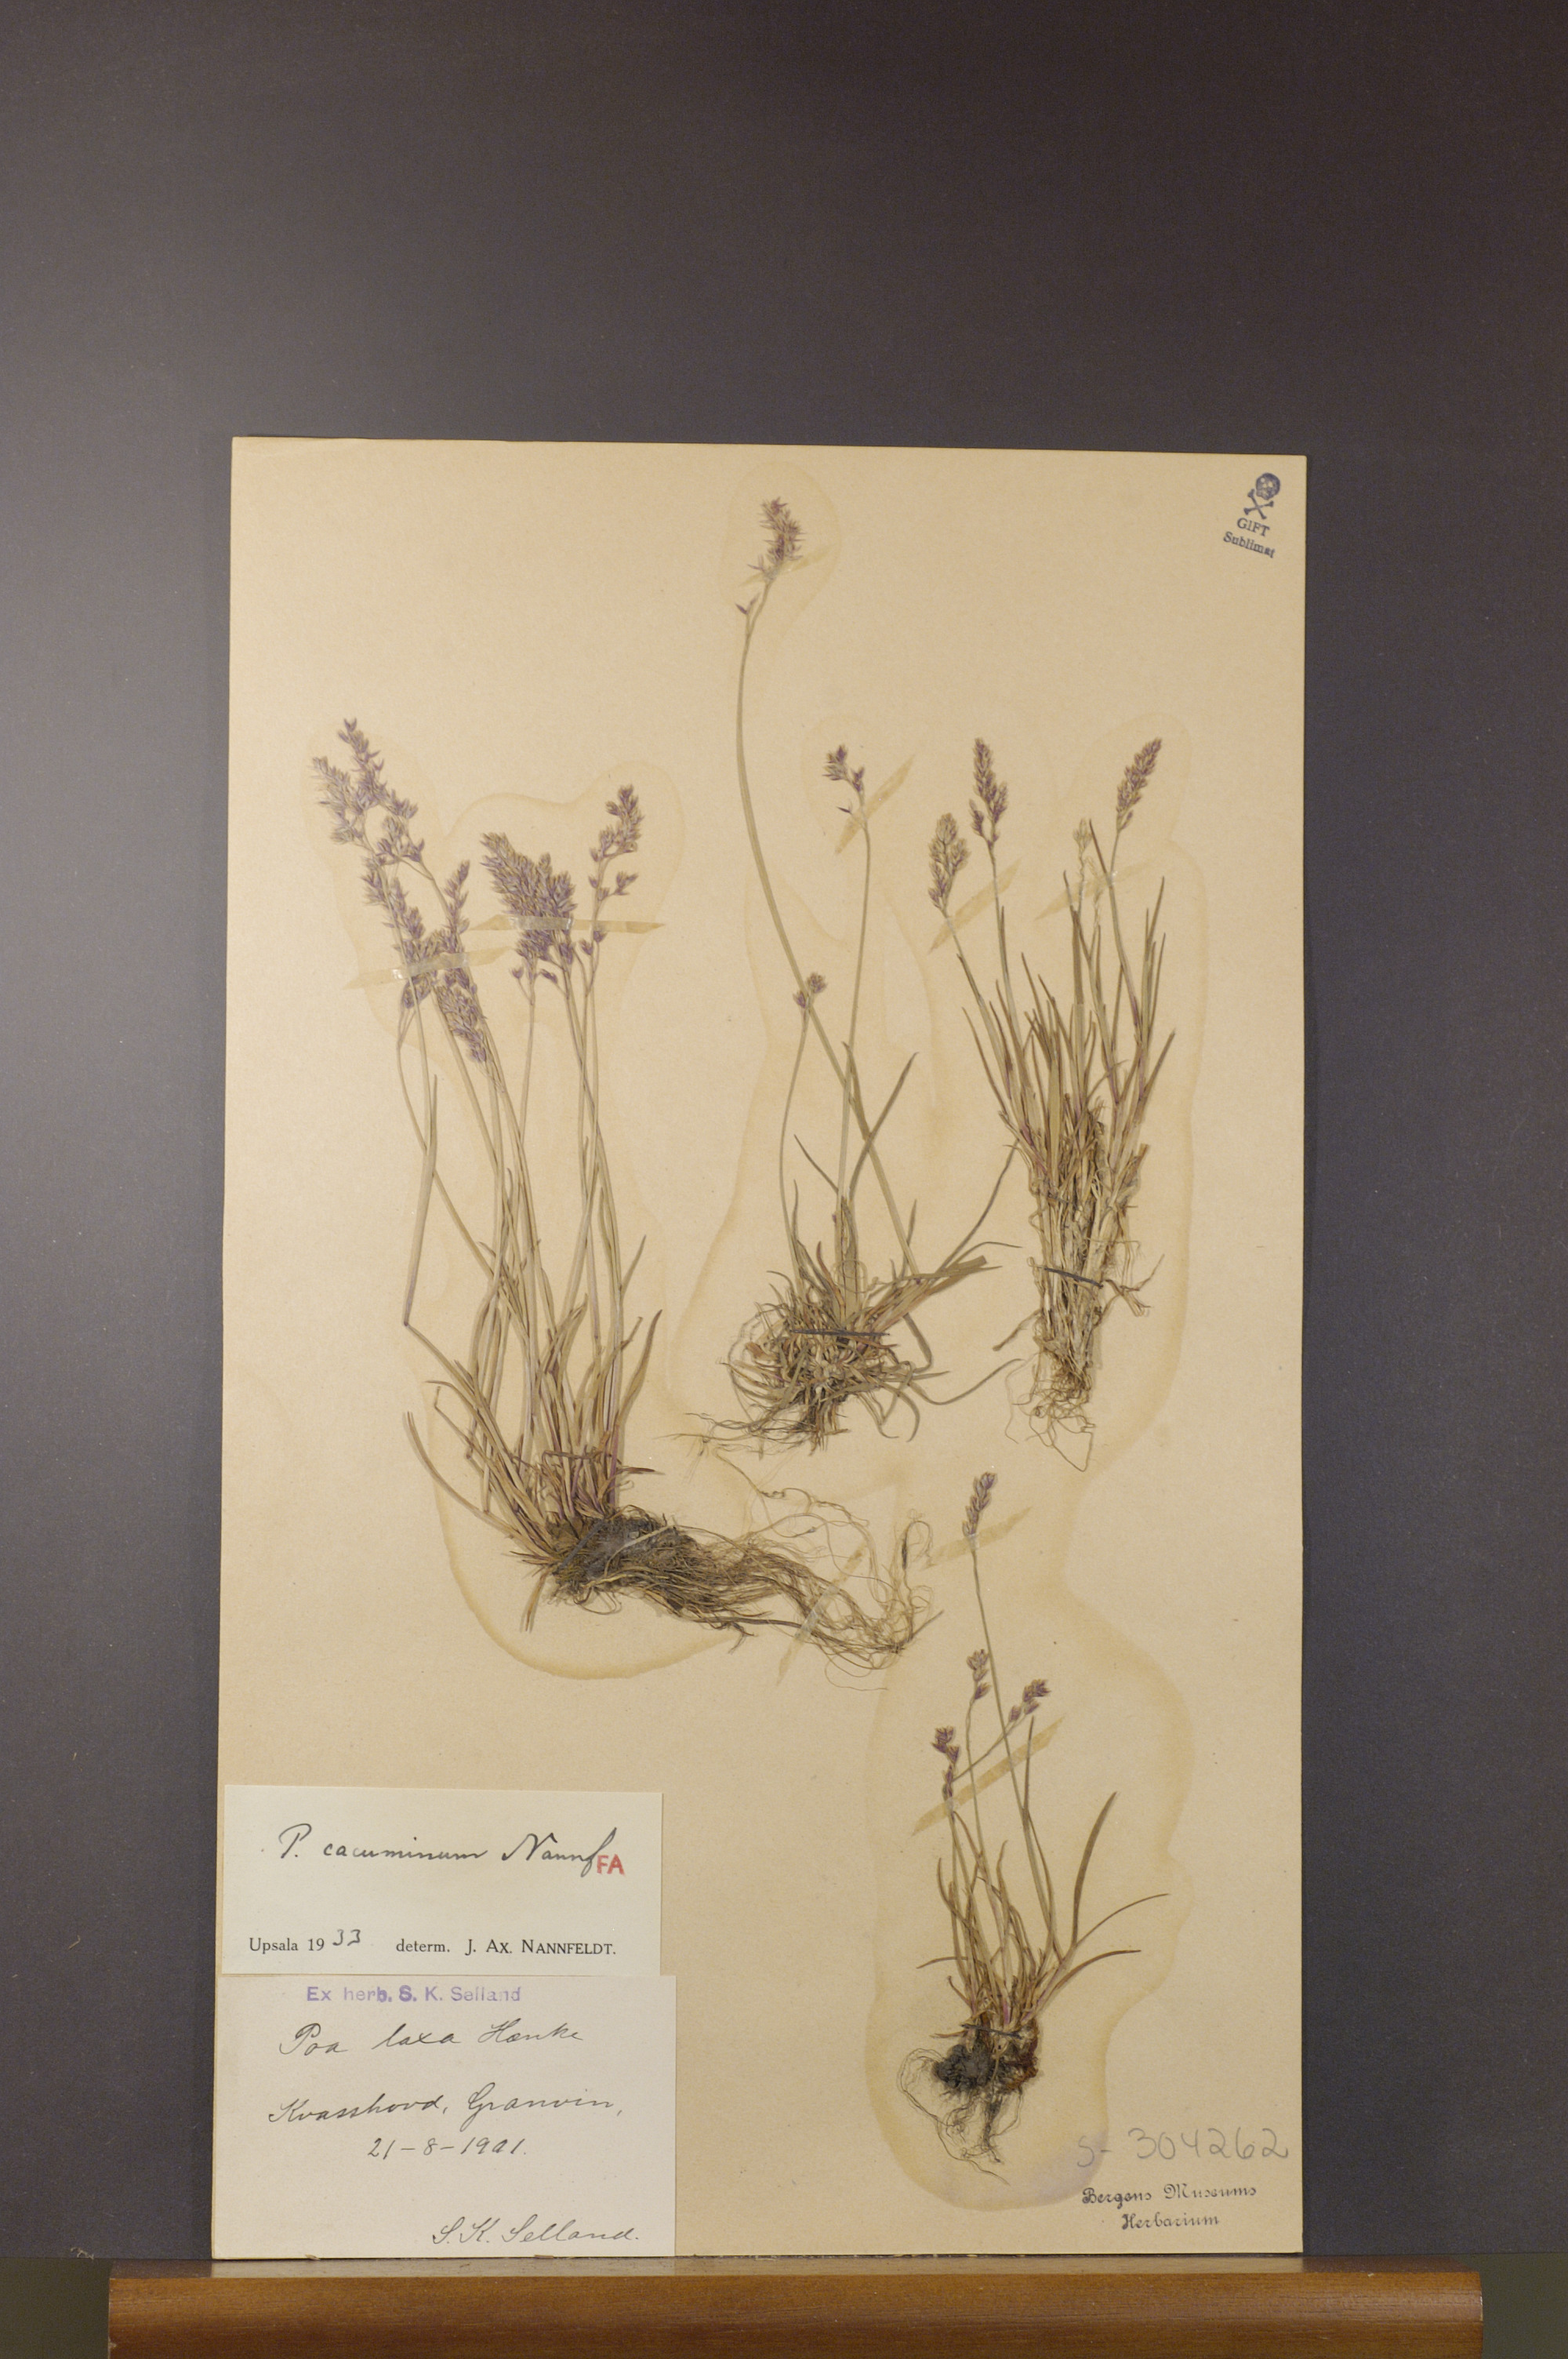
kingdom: Plantae
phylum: Tracheophyta
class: Liliopsida
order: Poales
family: Poaceae
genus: Poa
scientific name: Poa flexuosa
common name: Wavy meadow-grass
